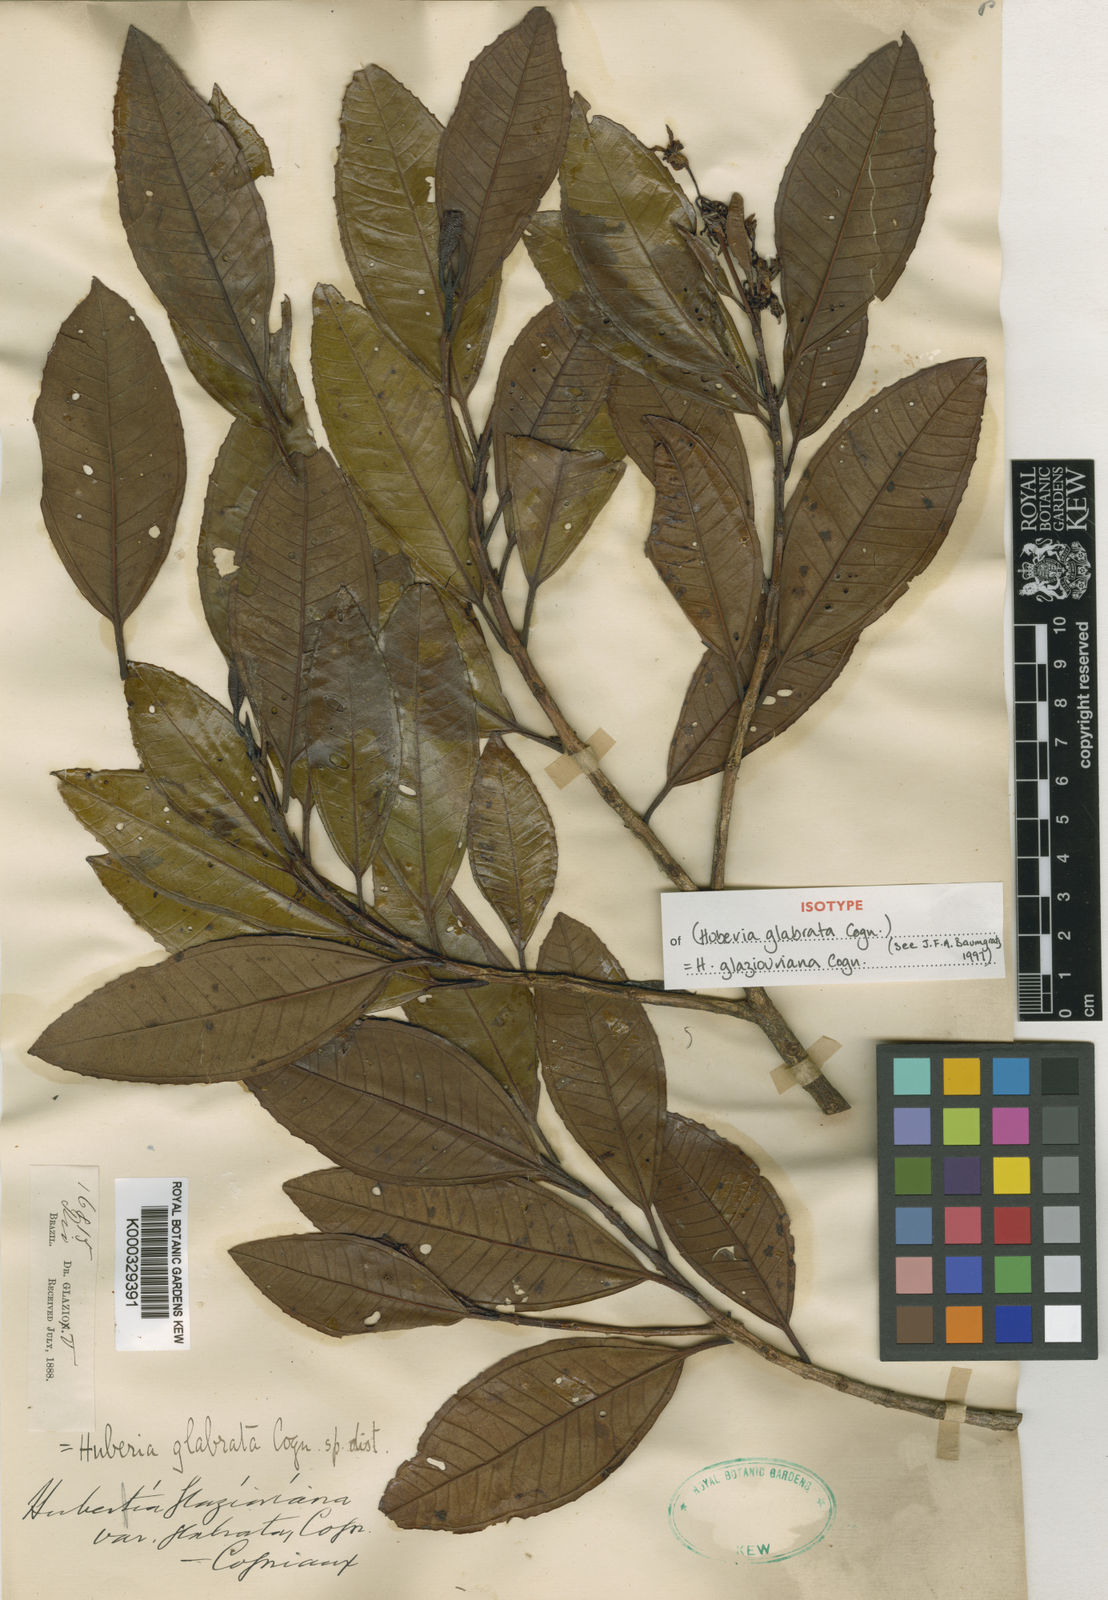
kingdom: Plantae
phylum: Tracheophyta
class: Magnoliopsida
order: Myrtales
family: Melastomataceae
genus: Huberia
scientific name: Huberia glazioviana
